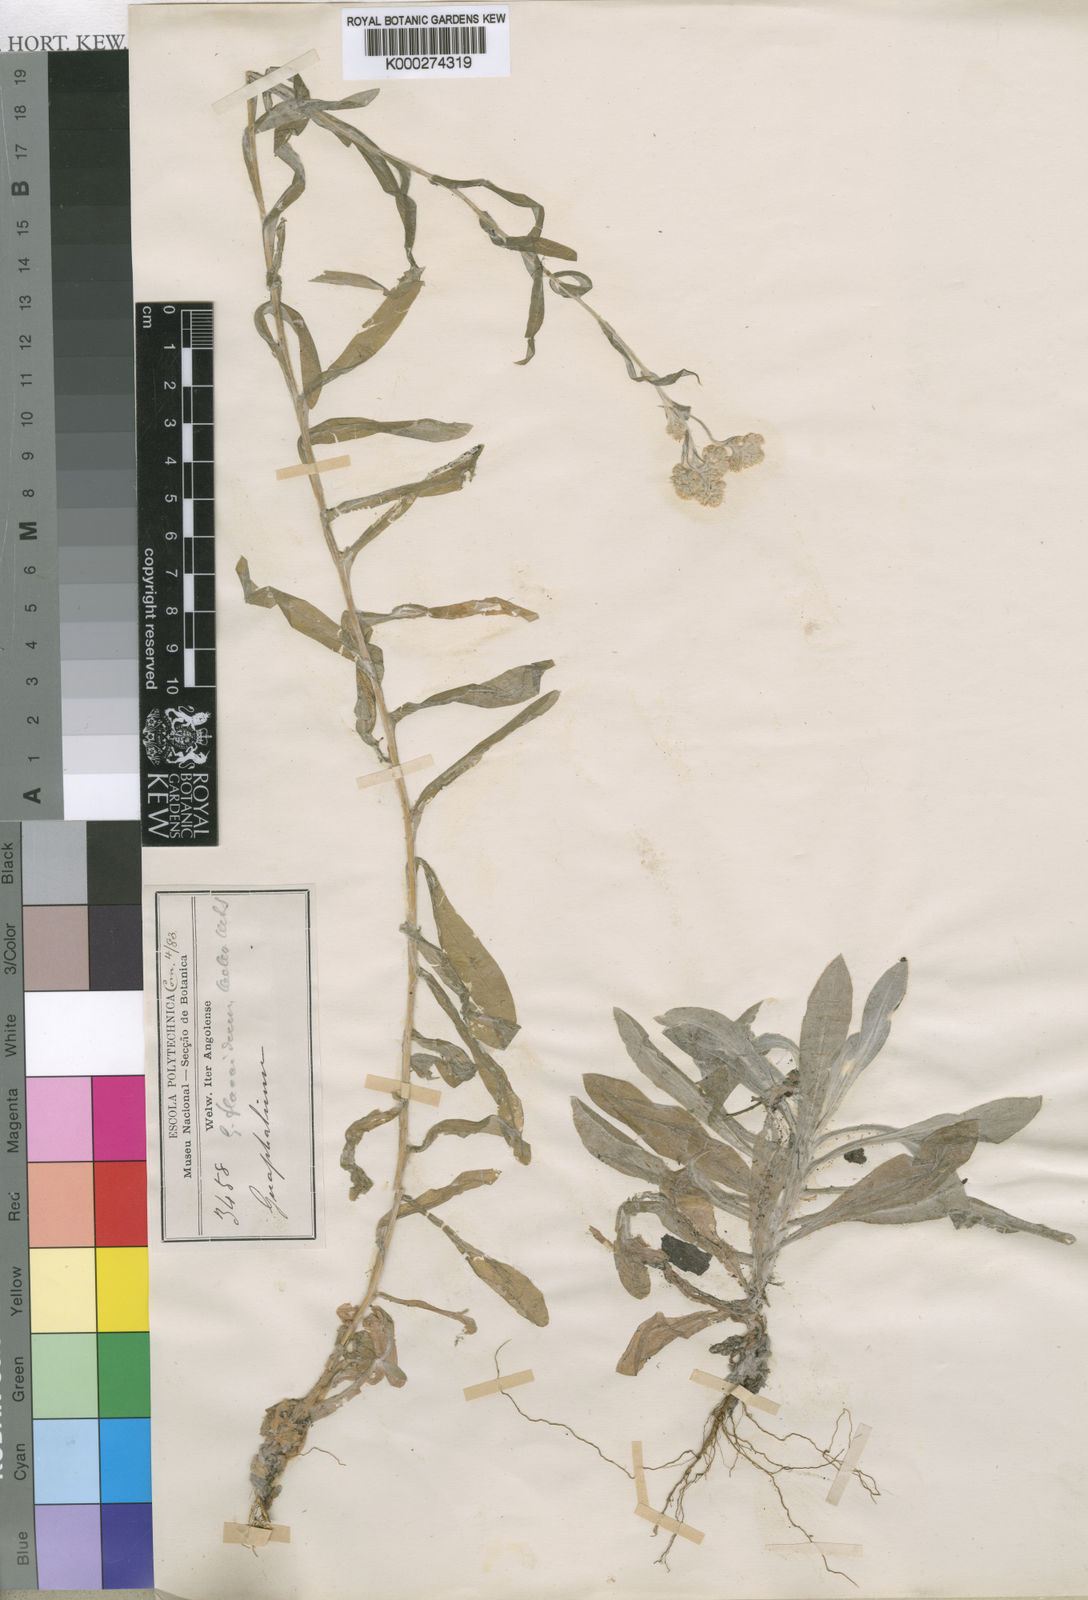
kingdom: Plantae
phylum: Tracheophyta
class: Magnoliopsida
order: Asterales
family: Asteraceae
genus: Helichrysum
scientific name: Helichrysum luteoalbum
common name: Daisy
